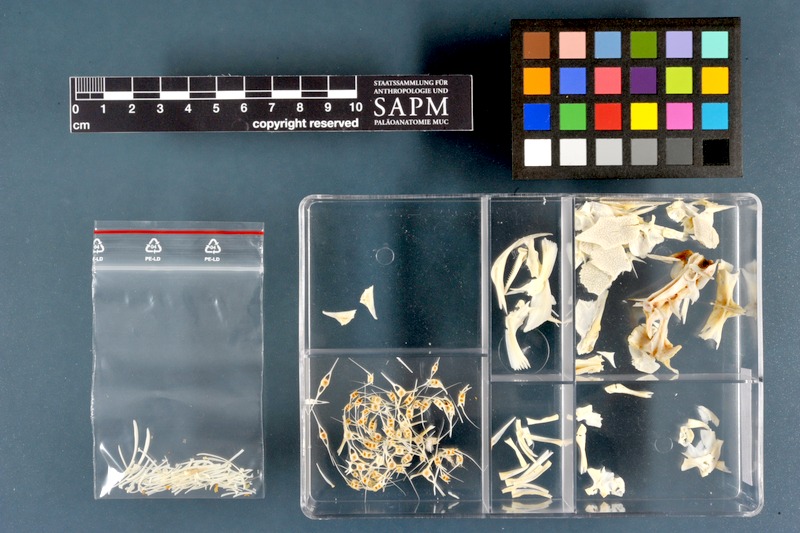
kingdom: Animalia
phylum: Chordata
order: Siluriformes
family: Clariidae
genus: Clarias
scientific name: Clarias gariepinus
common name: African catfish
